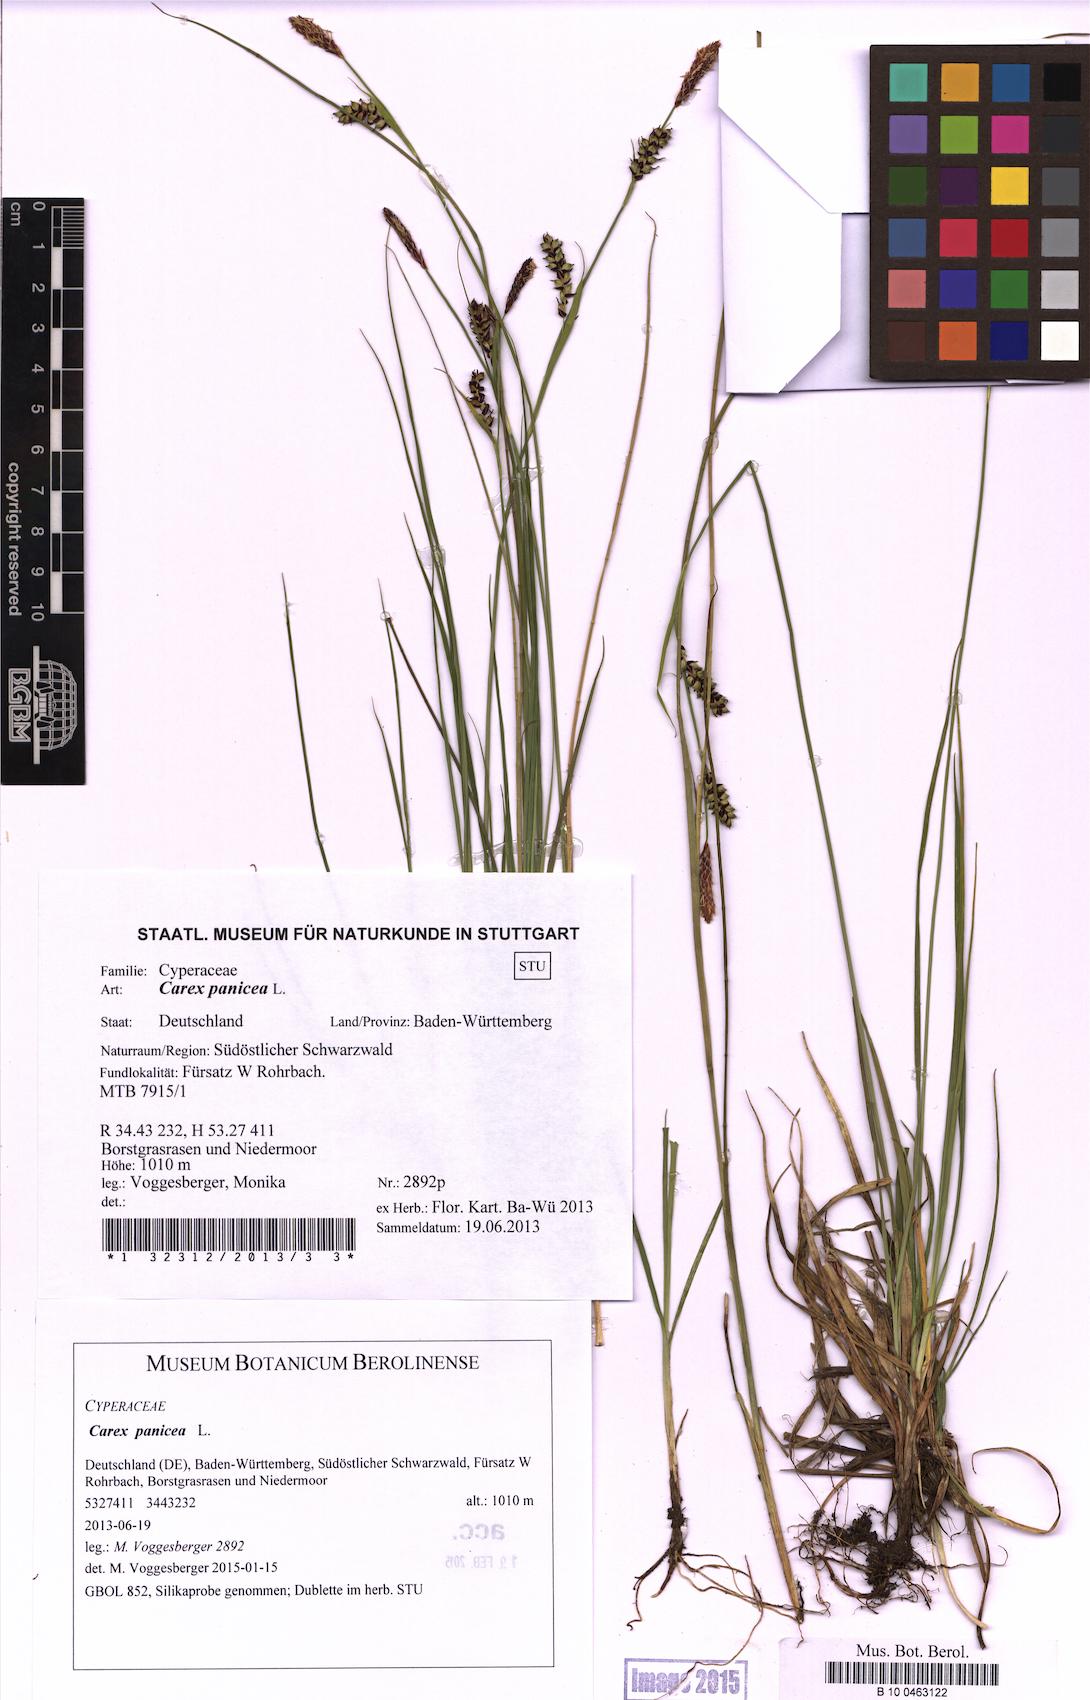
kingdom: Plantae
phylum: Tracheophyta
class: Liliopsida
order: Poales
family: Cyperaceae
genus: Carex
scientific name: Carex panicea
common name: Carnation sedge
